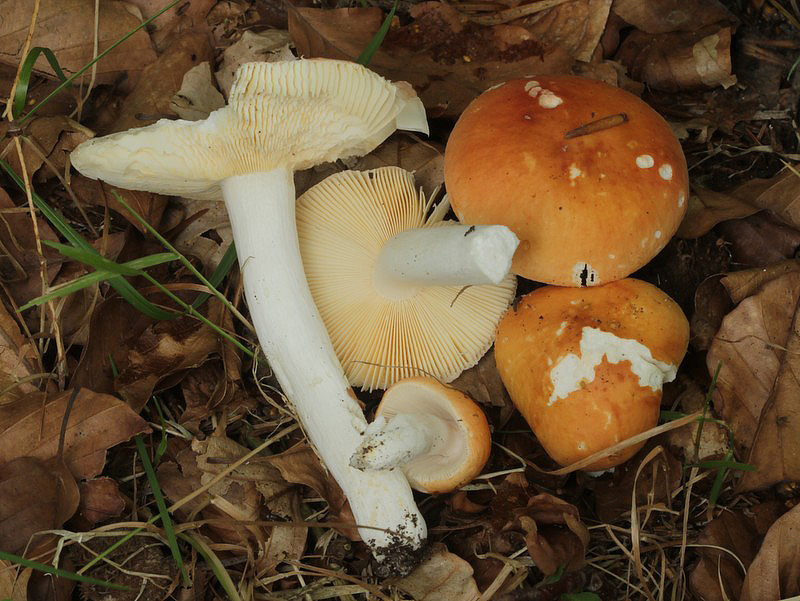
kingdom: Fungi
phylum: Basidiomycota
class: Agaricomycetes
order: Russulales
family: Russulaceae
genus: Russula
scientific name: Russula risigallina
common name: abrikos-skørhat
